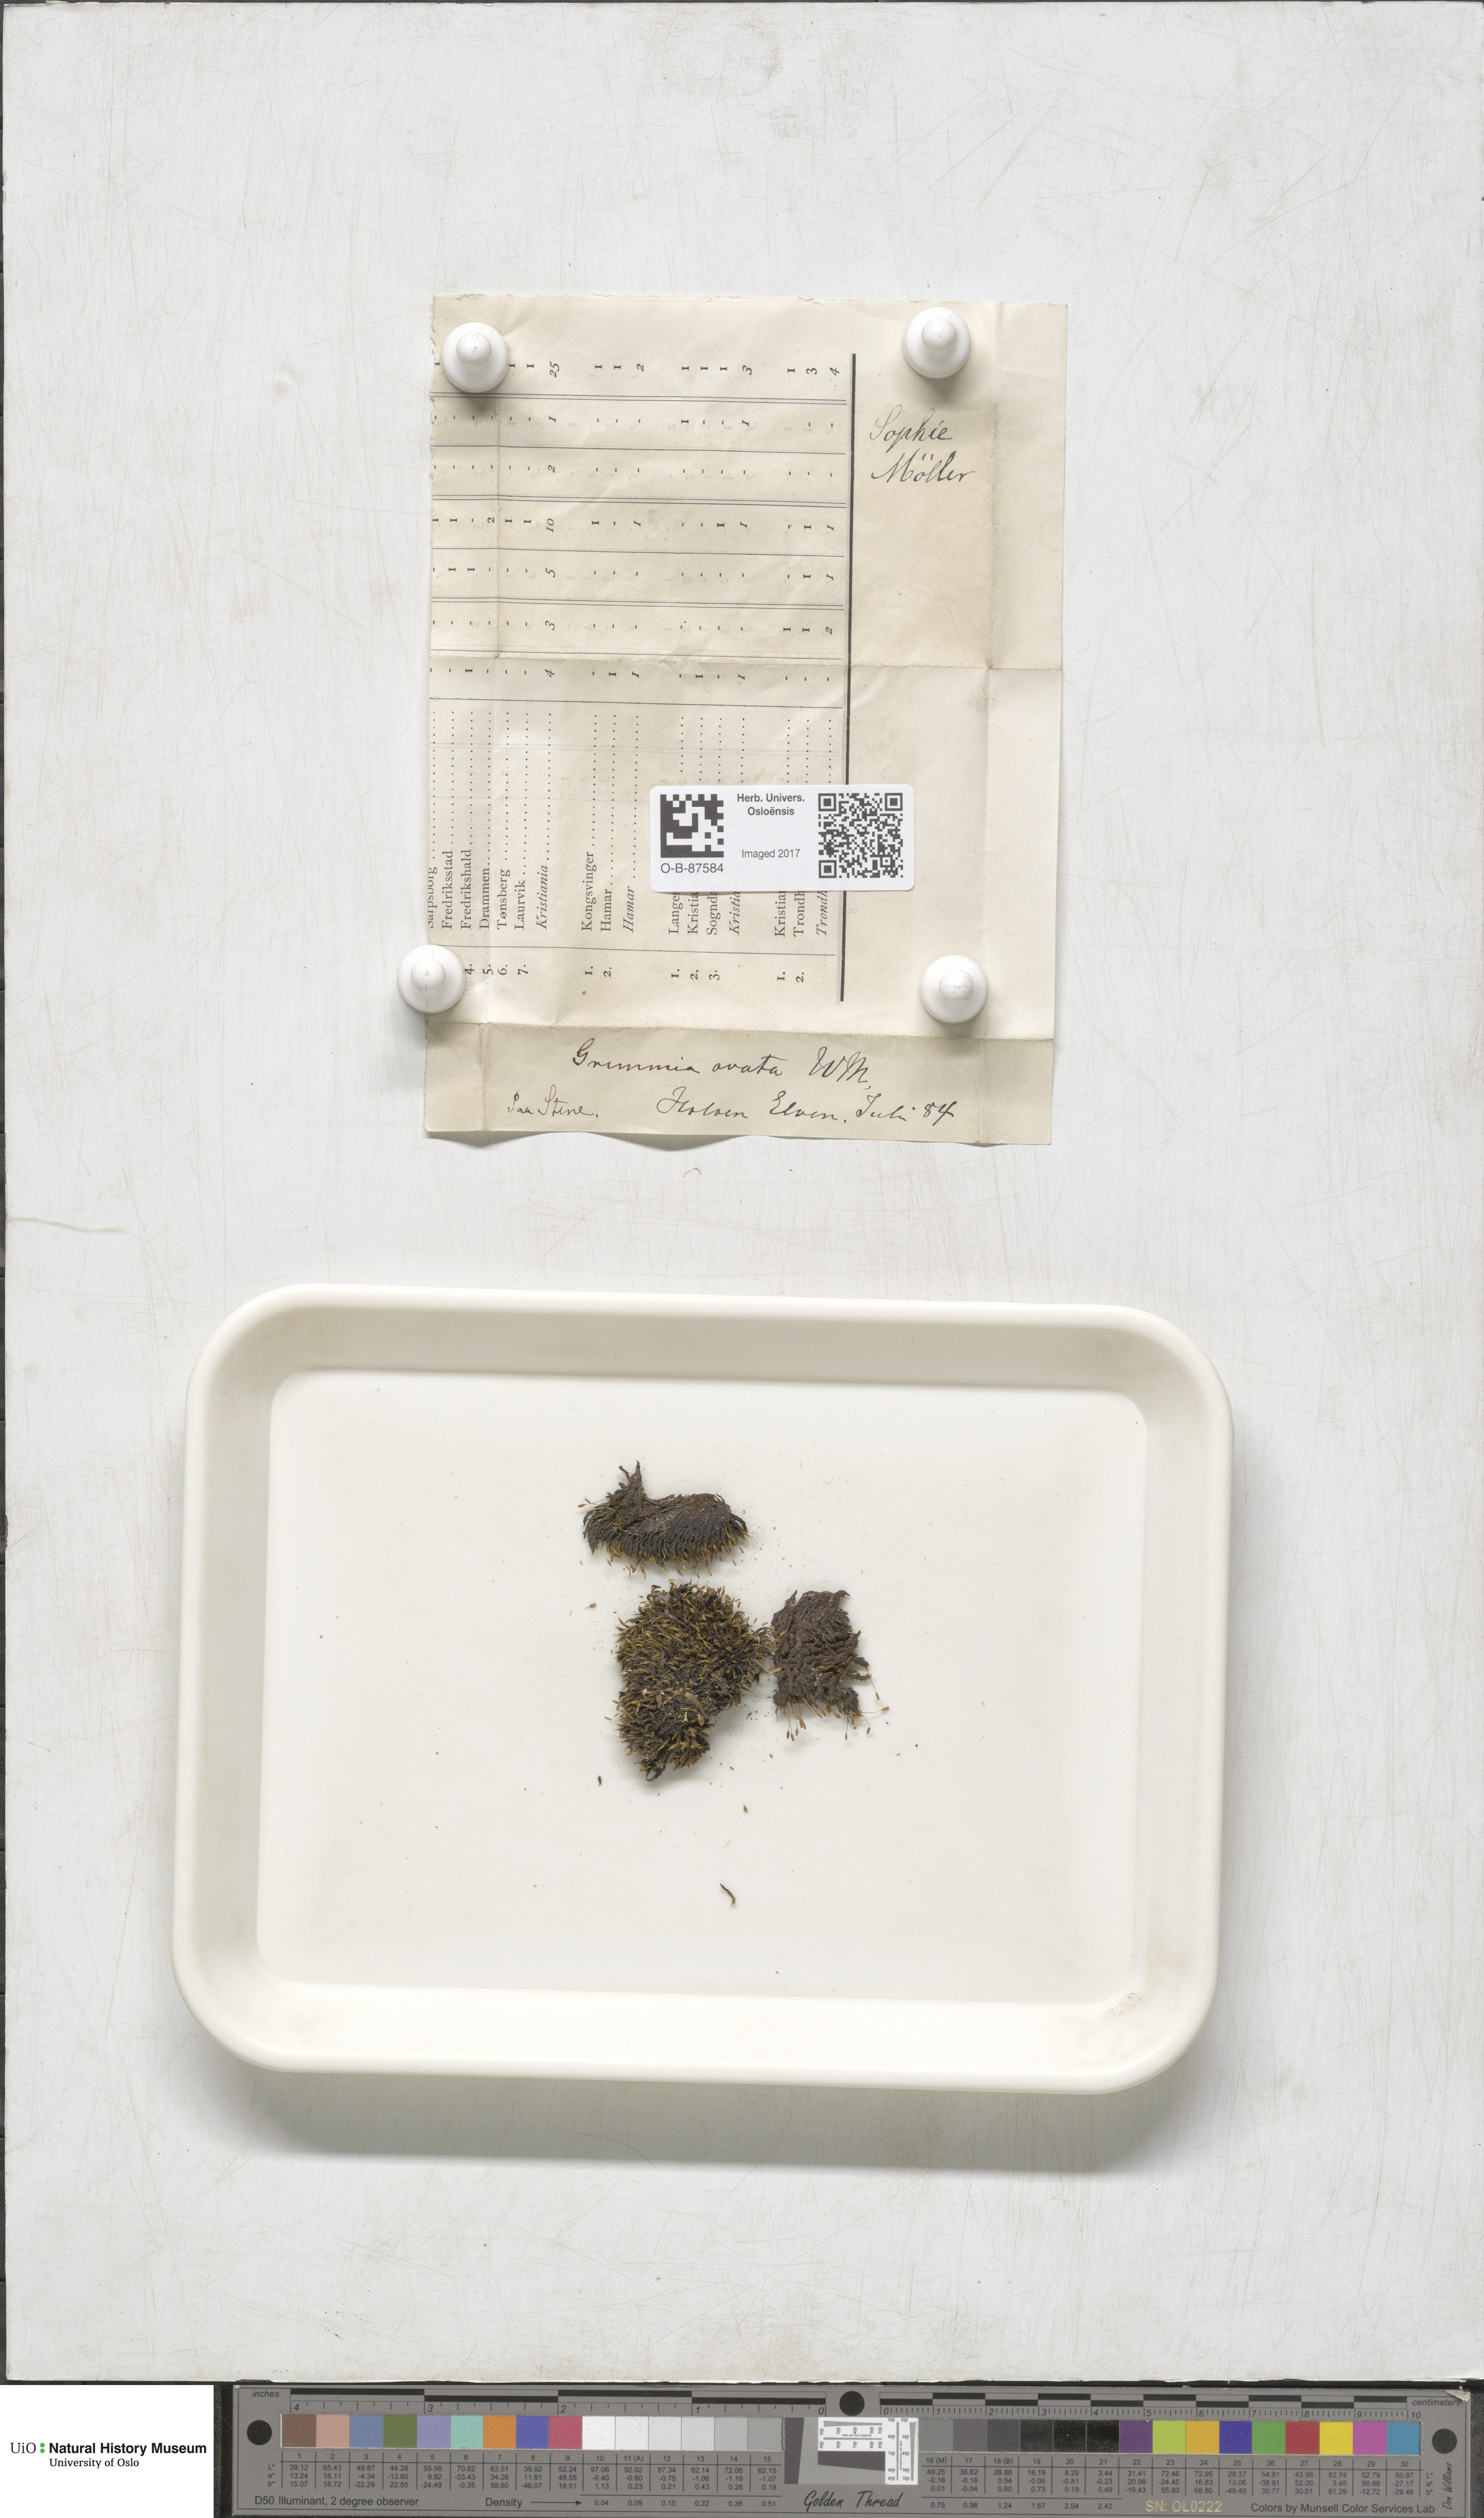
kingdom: Plantae
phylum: Bryophyta
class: Bryopsida
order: Grimmiales
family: Grimmiaceae
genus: Grimmia
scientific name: Grimmia ovalis
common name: Oval grimmia
